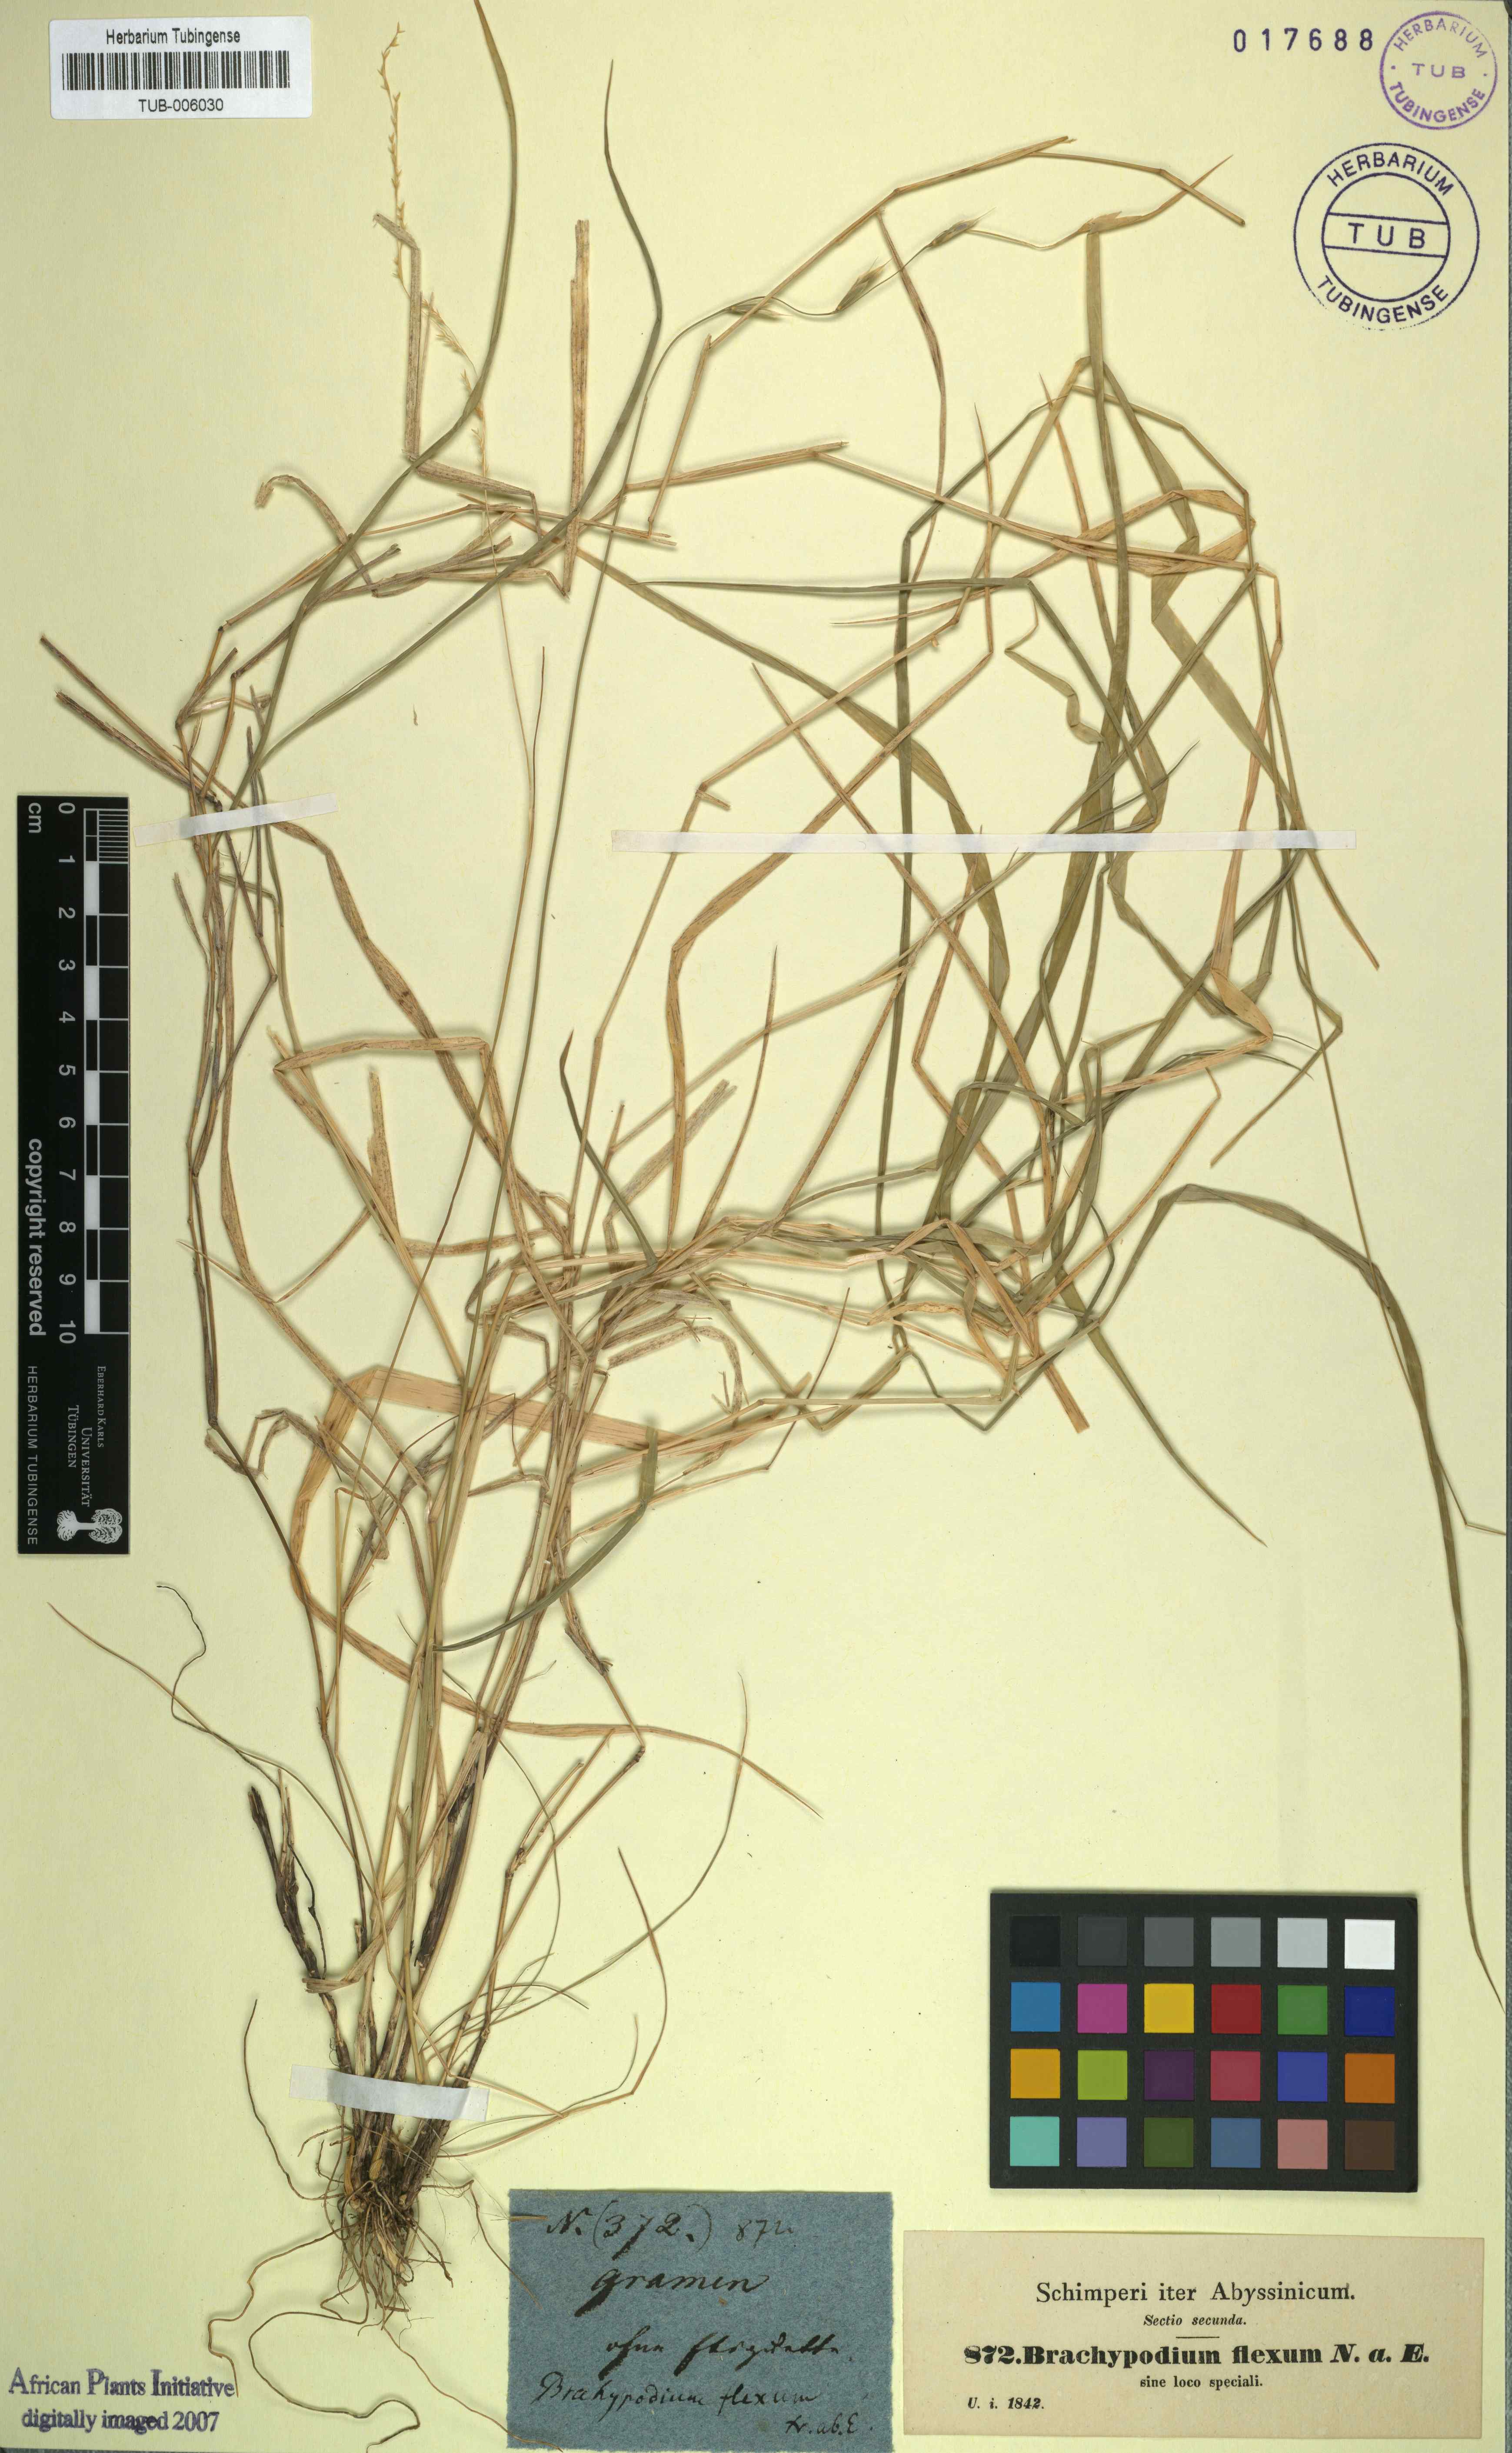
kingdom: Plantae
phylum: Tracheophyta
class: Liliopsida
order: Poales
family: Poaceae
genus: Brachypodium
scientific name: Brachypodium flexum
